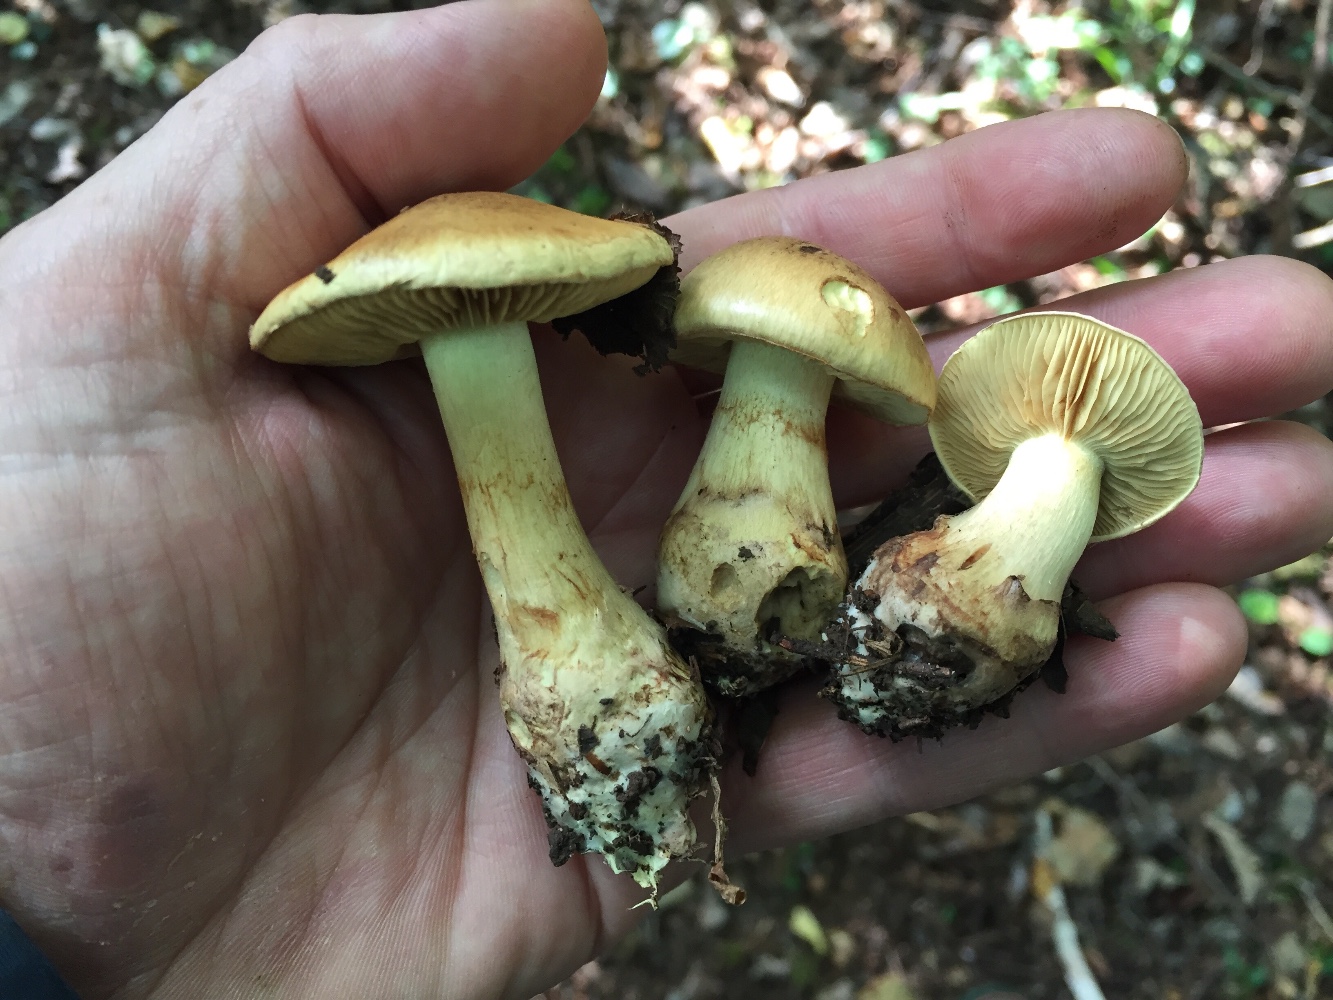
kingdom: Fungi
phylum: Basidiomycota
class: Agaricomycetes
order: Agaricales
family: Cortinariaceae
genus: Phlegmacium
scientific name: Phlegmacium majoranae
